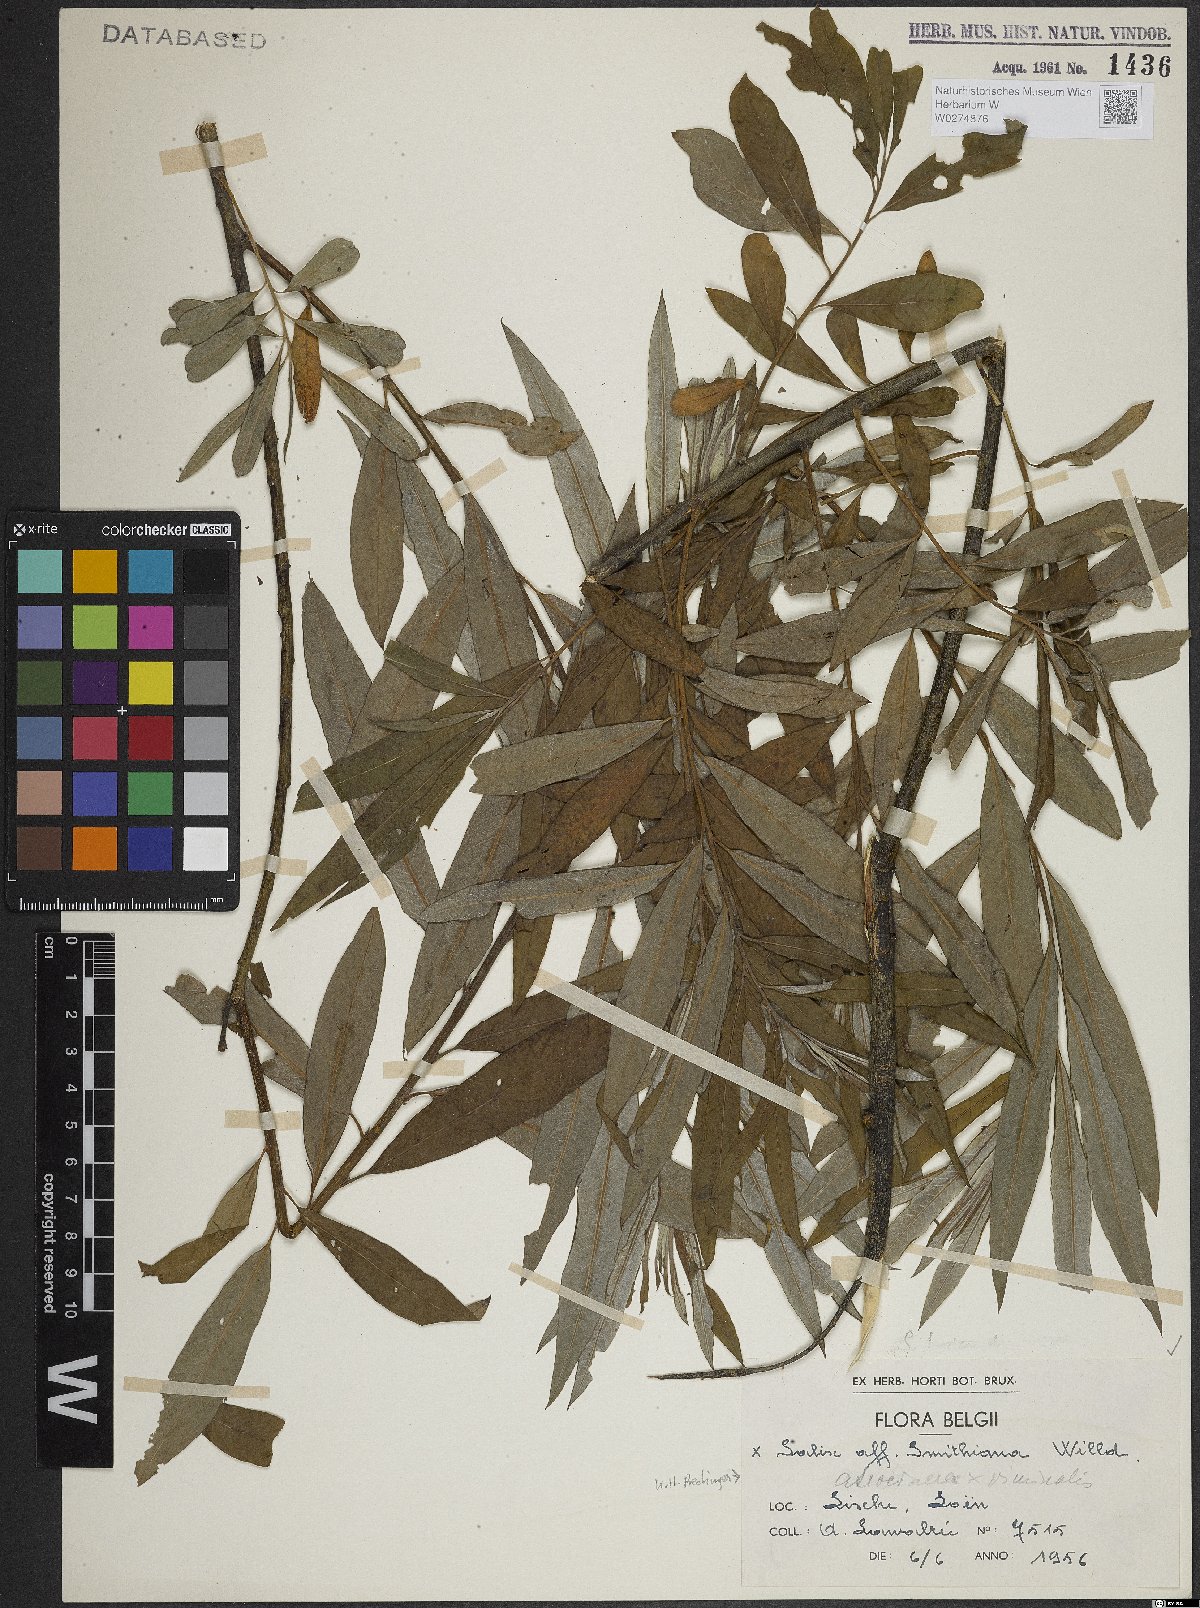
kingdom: Plantae
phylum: Tracheophyta
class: Magnoliopsida
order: Malpighiales
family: Salicaceae
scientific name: Salicaceae
